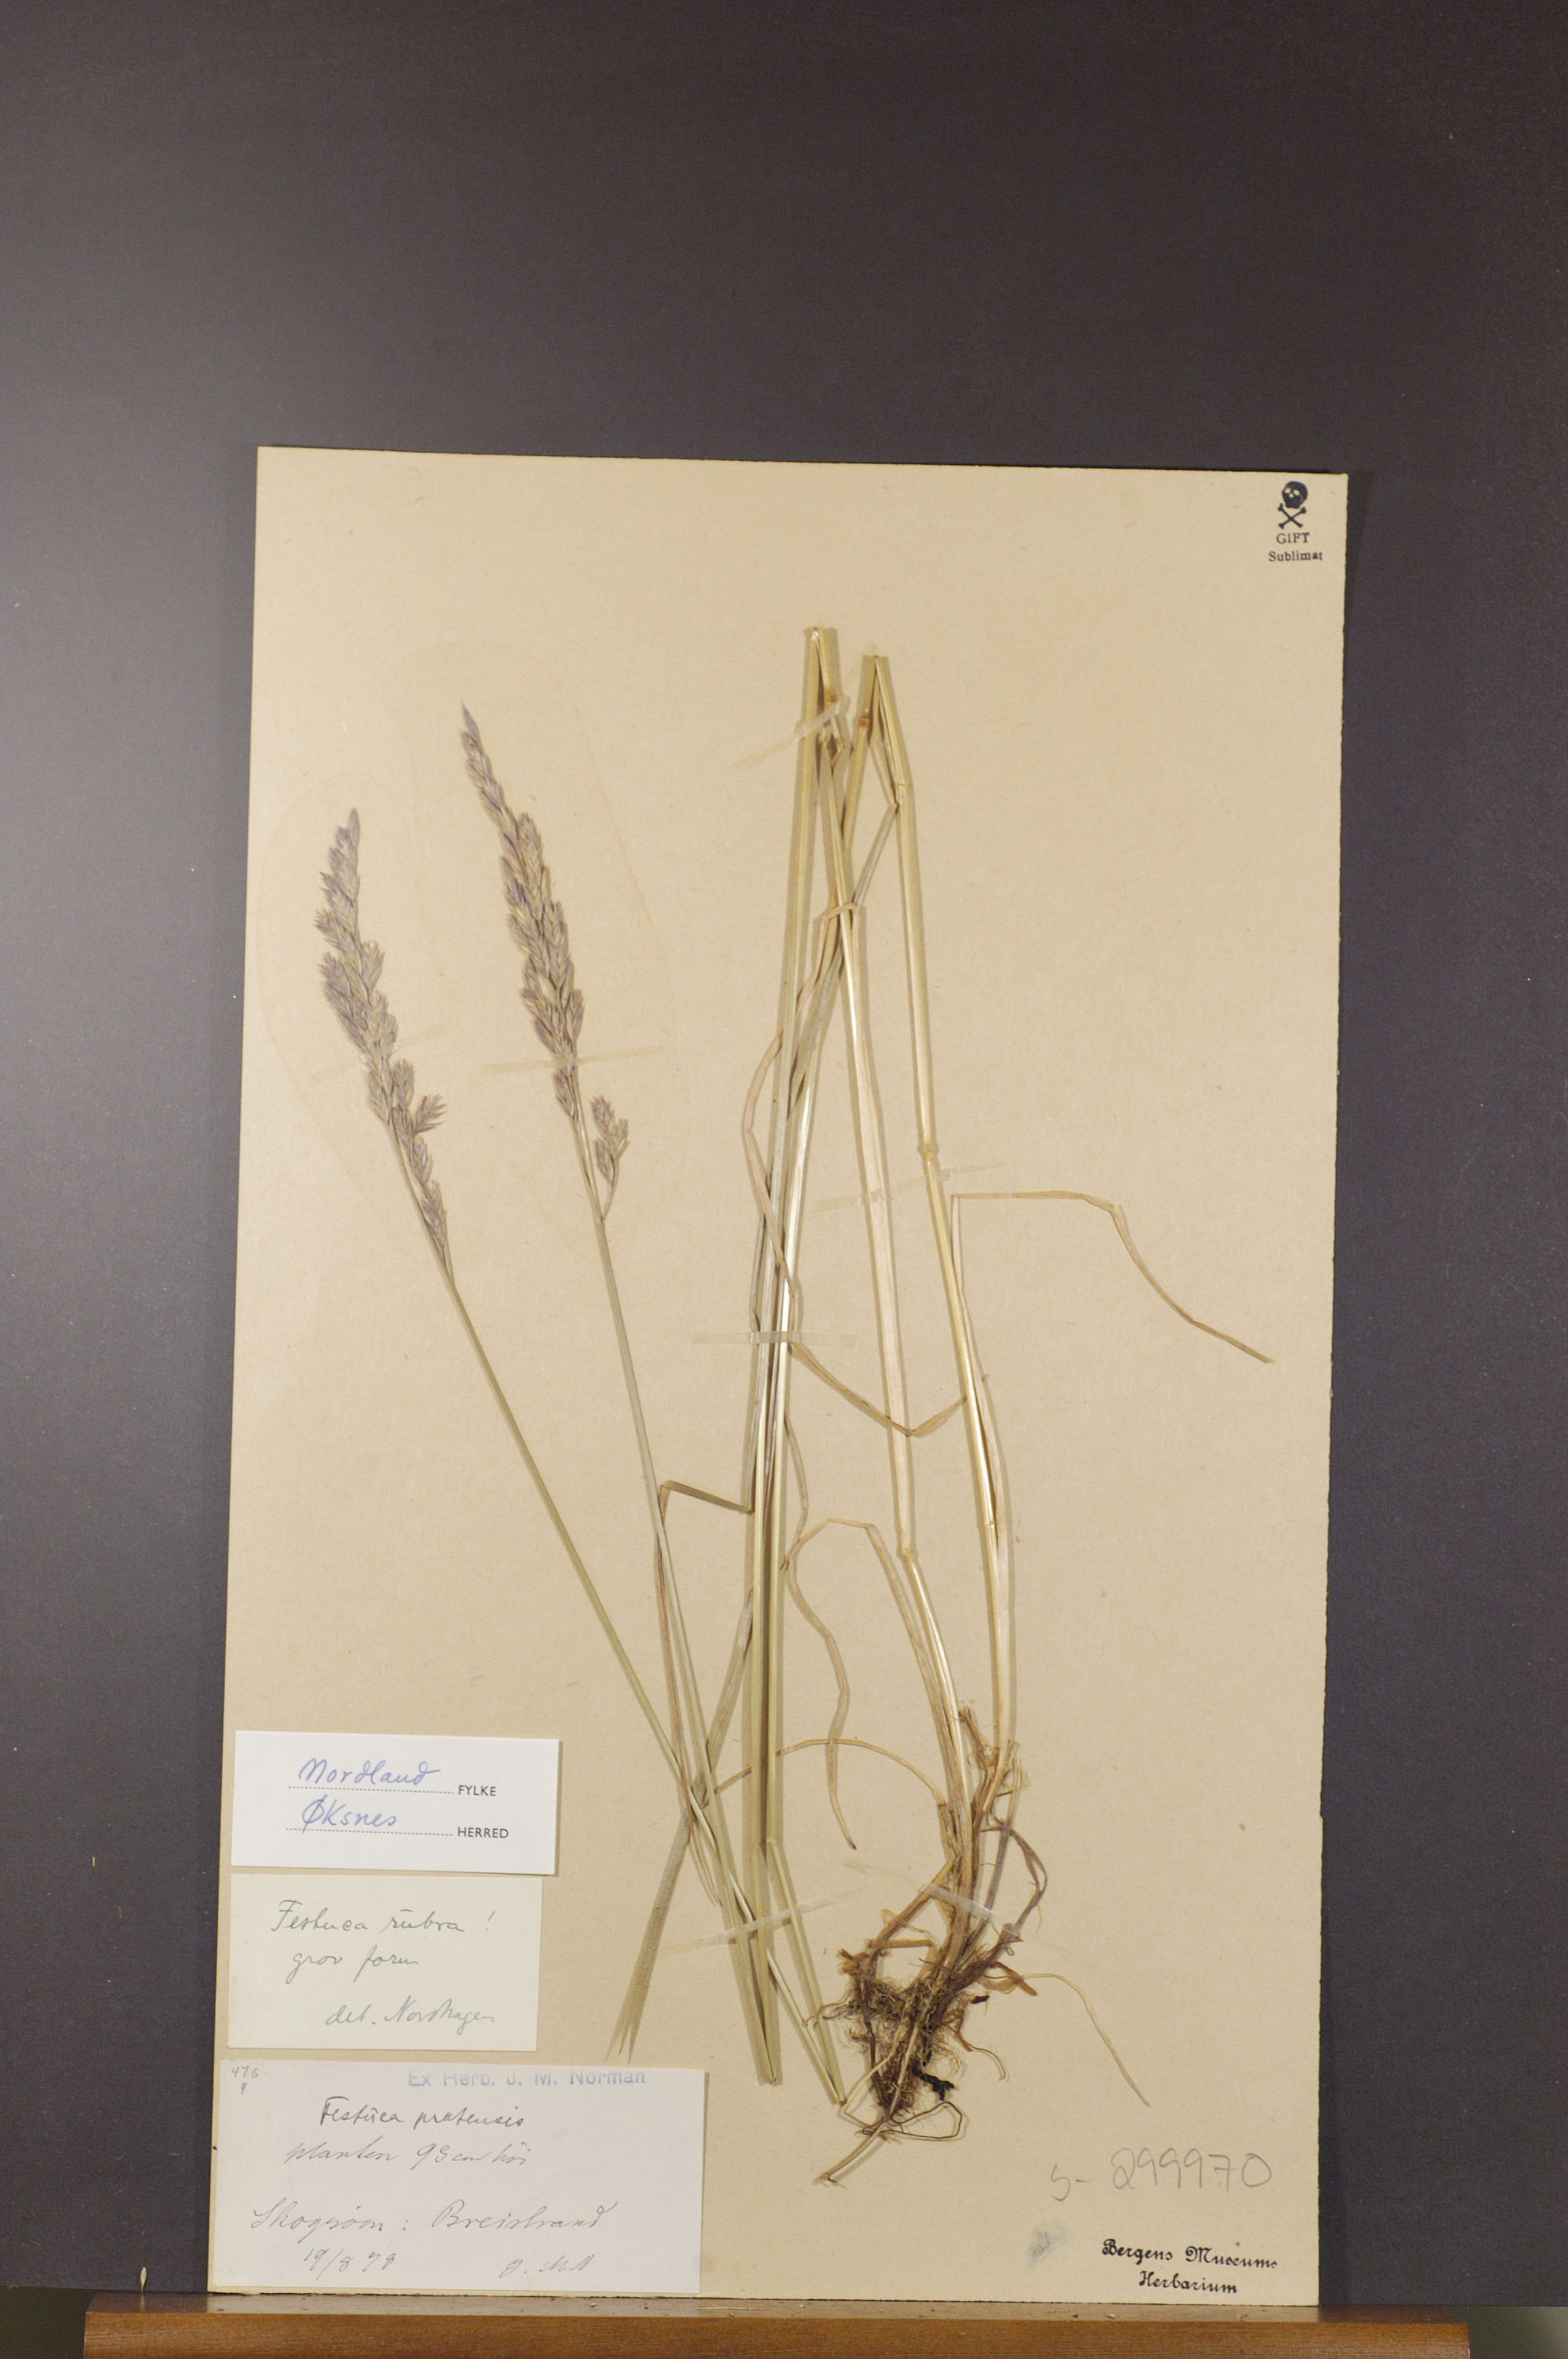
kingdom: Plantae
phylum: Tracheophyta
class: Liliopsida
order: Poales
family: Poaceae
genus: Festuca
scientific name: Festuca rubra
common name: Red fescue
